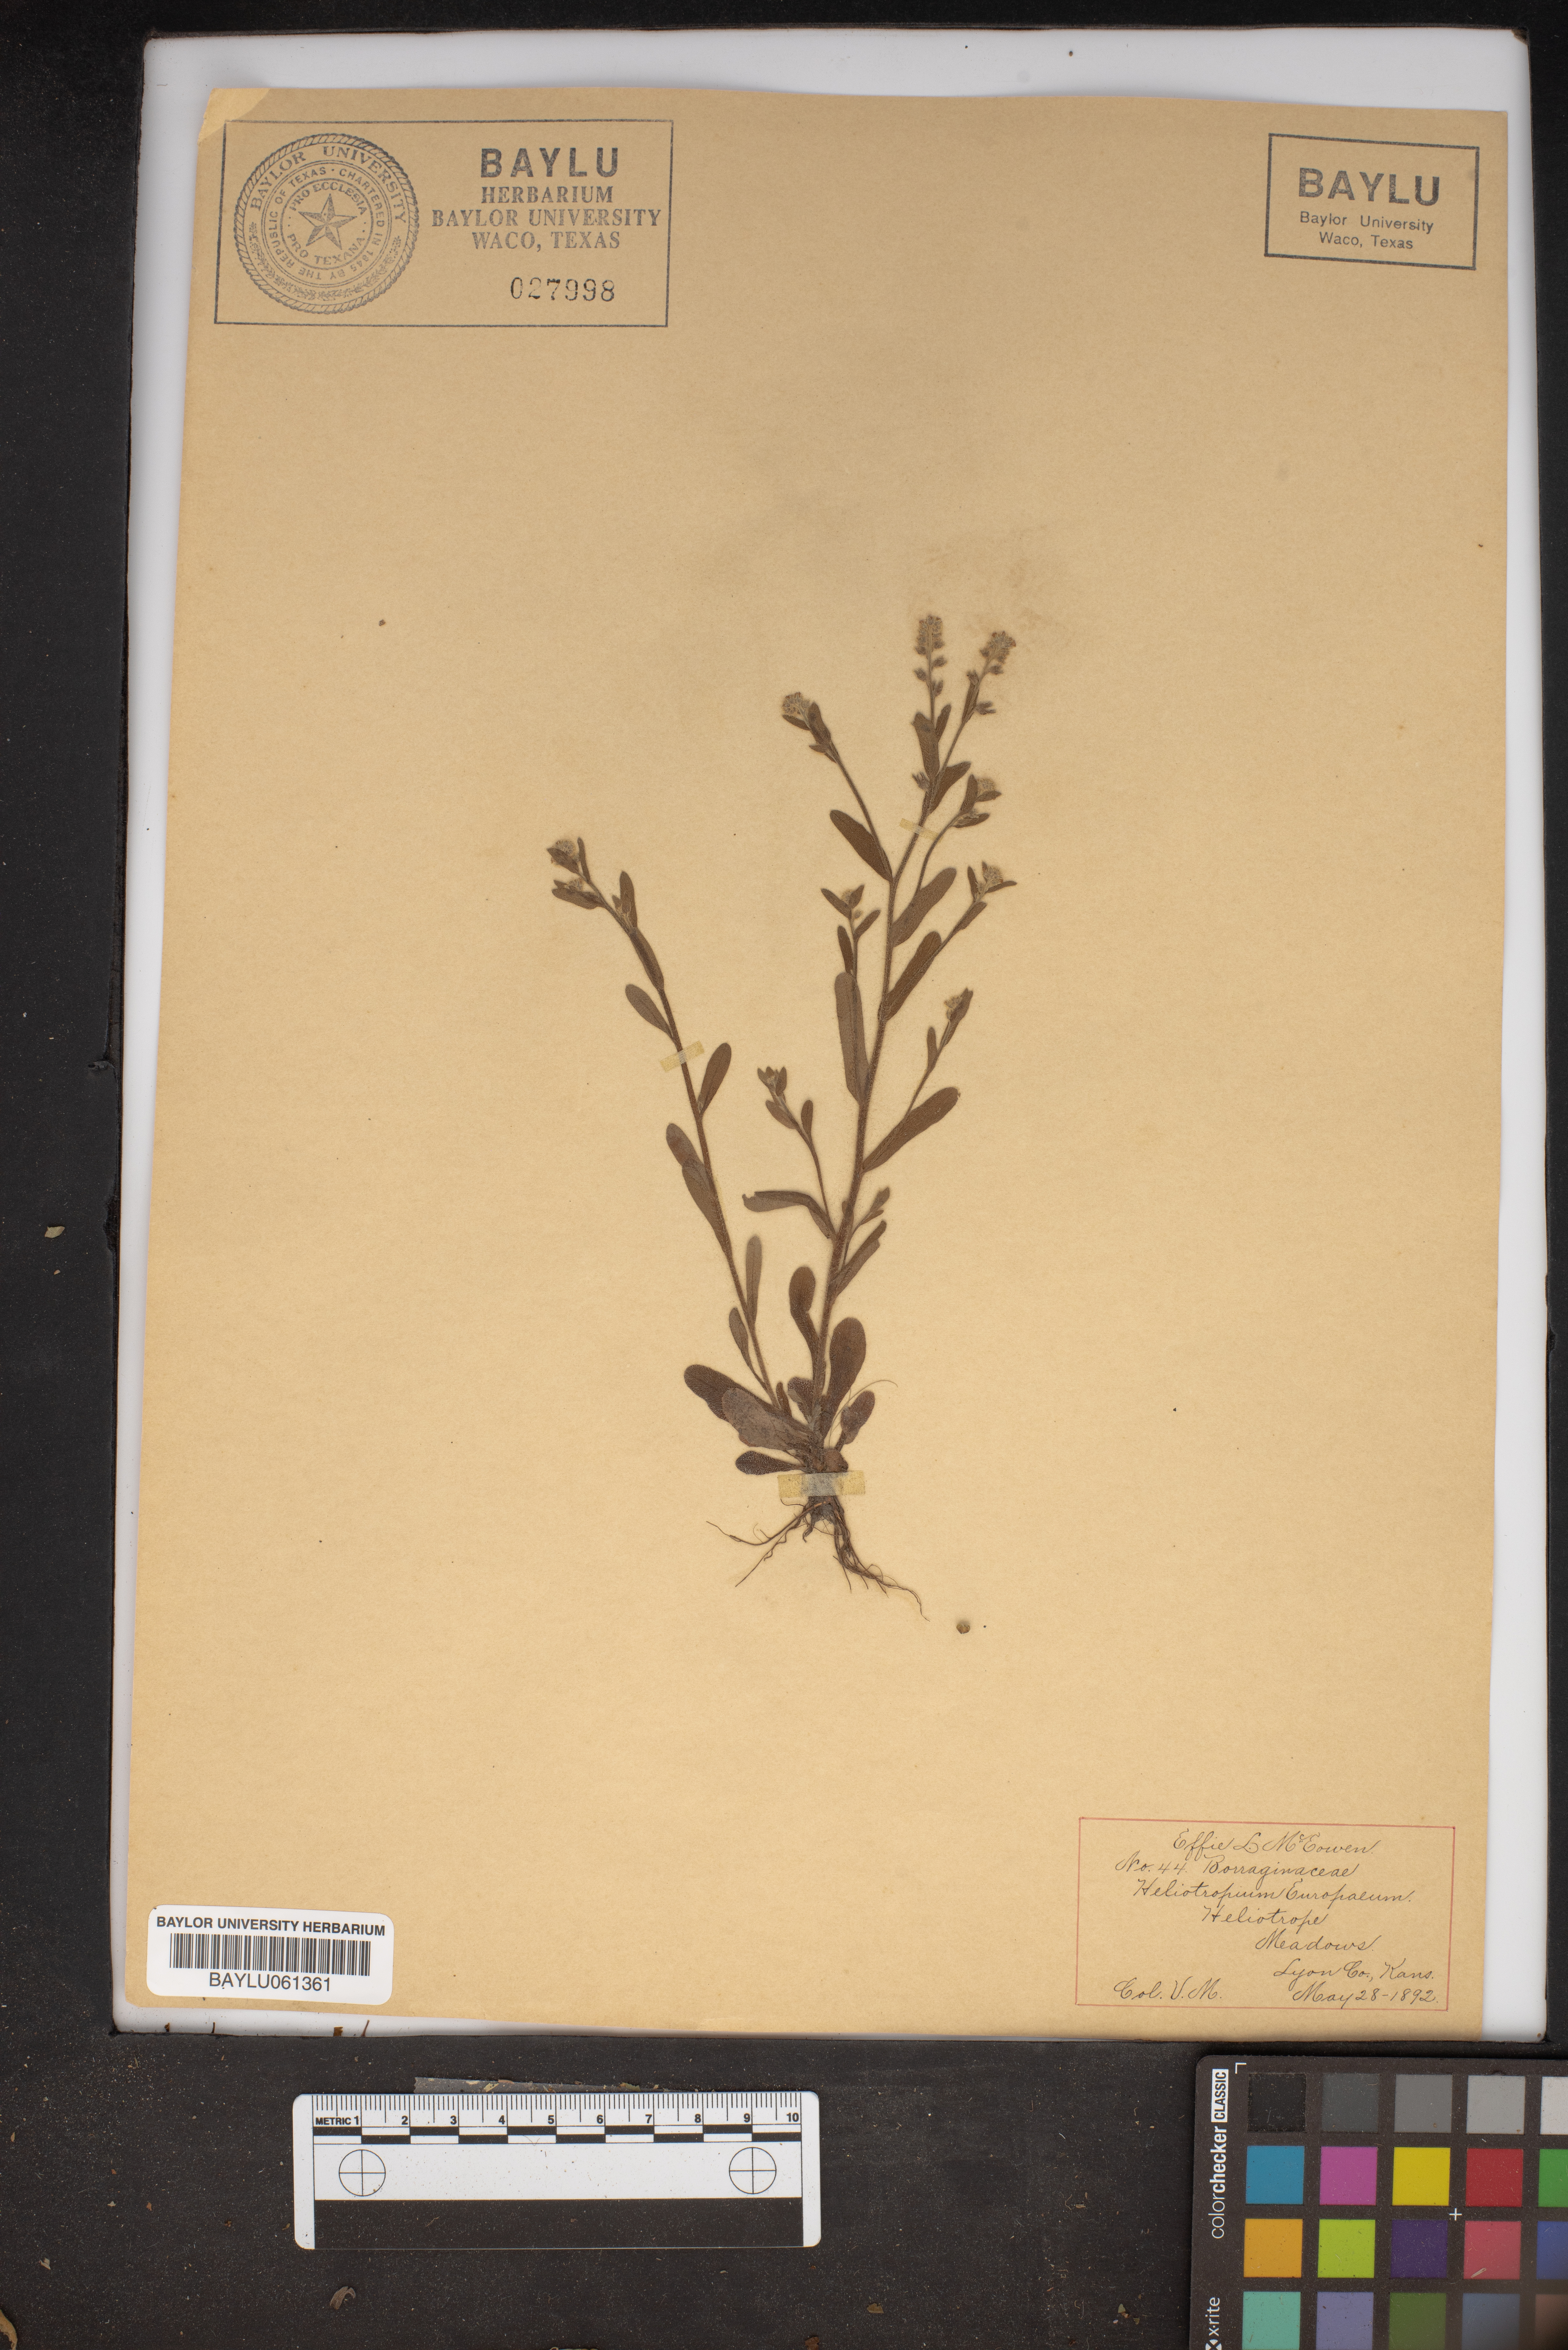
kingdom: Plantae
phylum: Tracheophyta
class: Magnoliopsida
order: Boraginales
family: Heliotropiaceae
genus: Heliotropium
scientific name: Heliotropium europaeum
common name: European heliotrope
